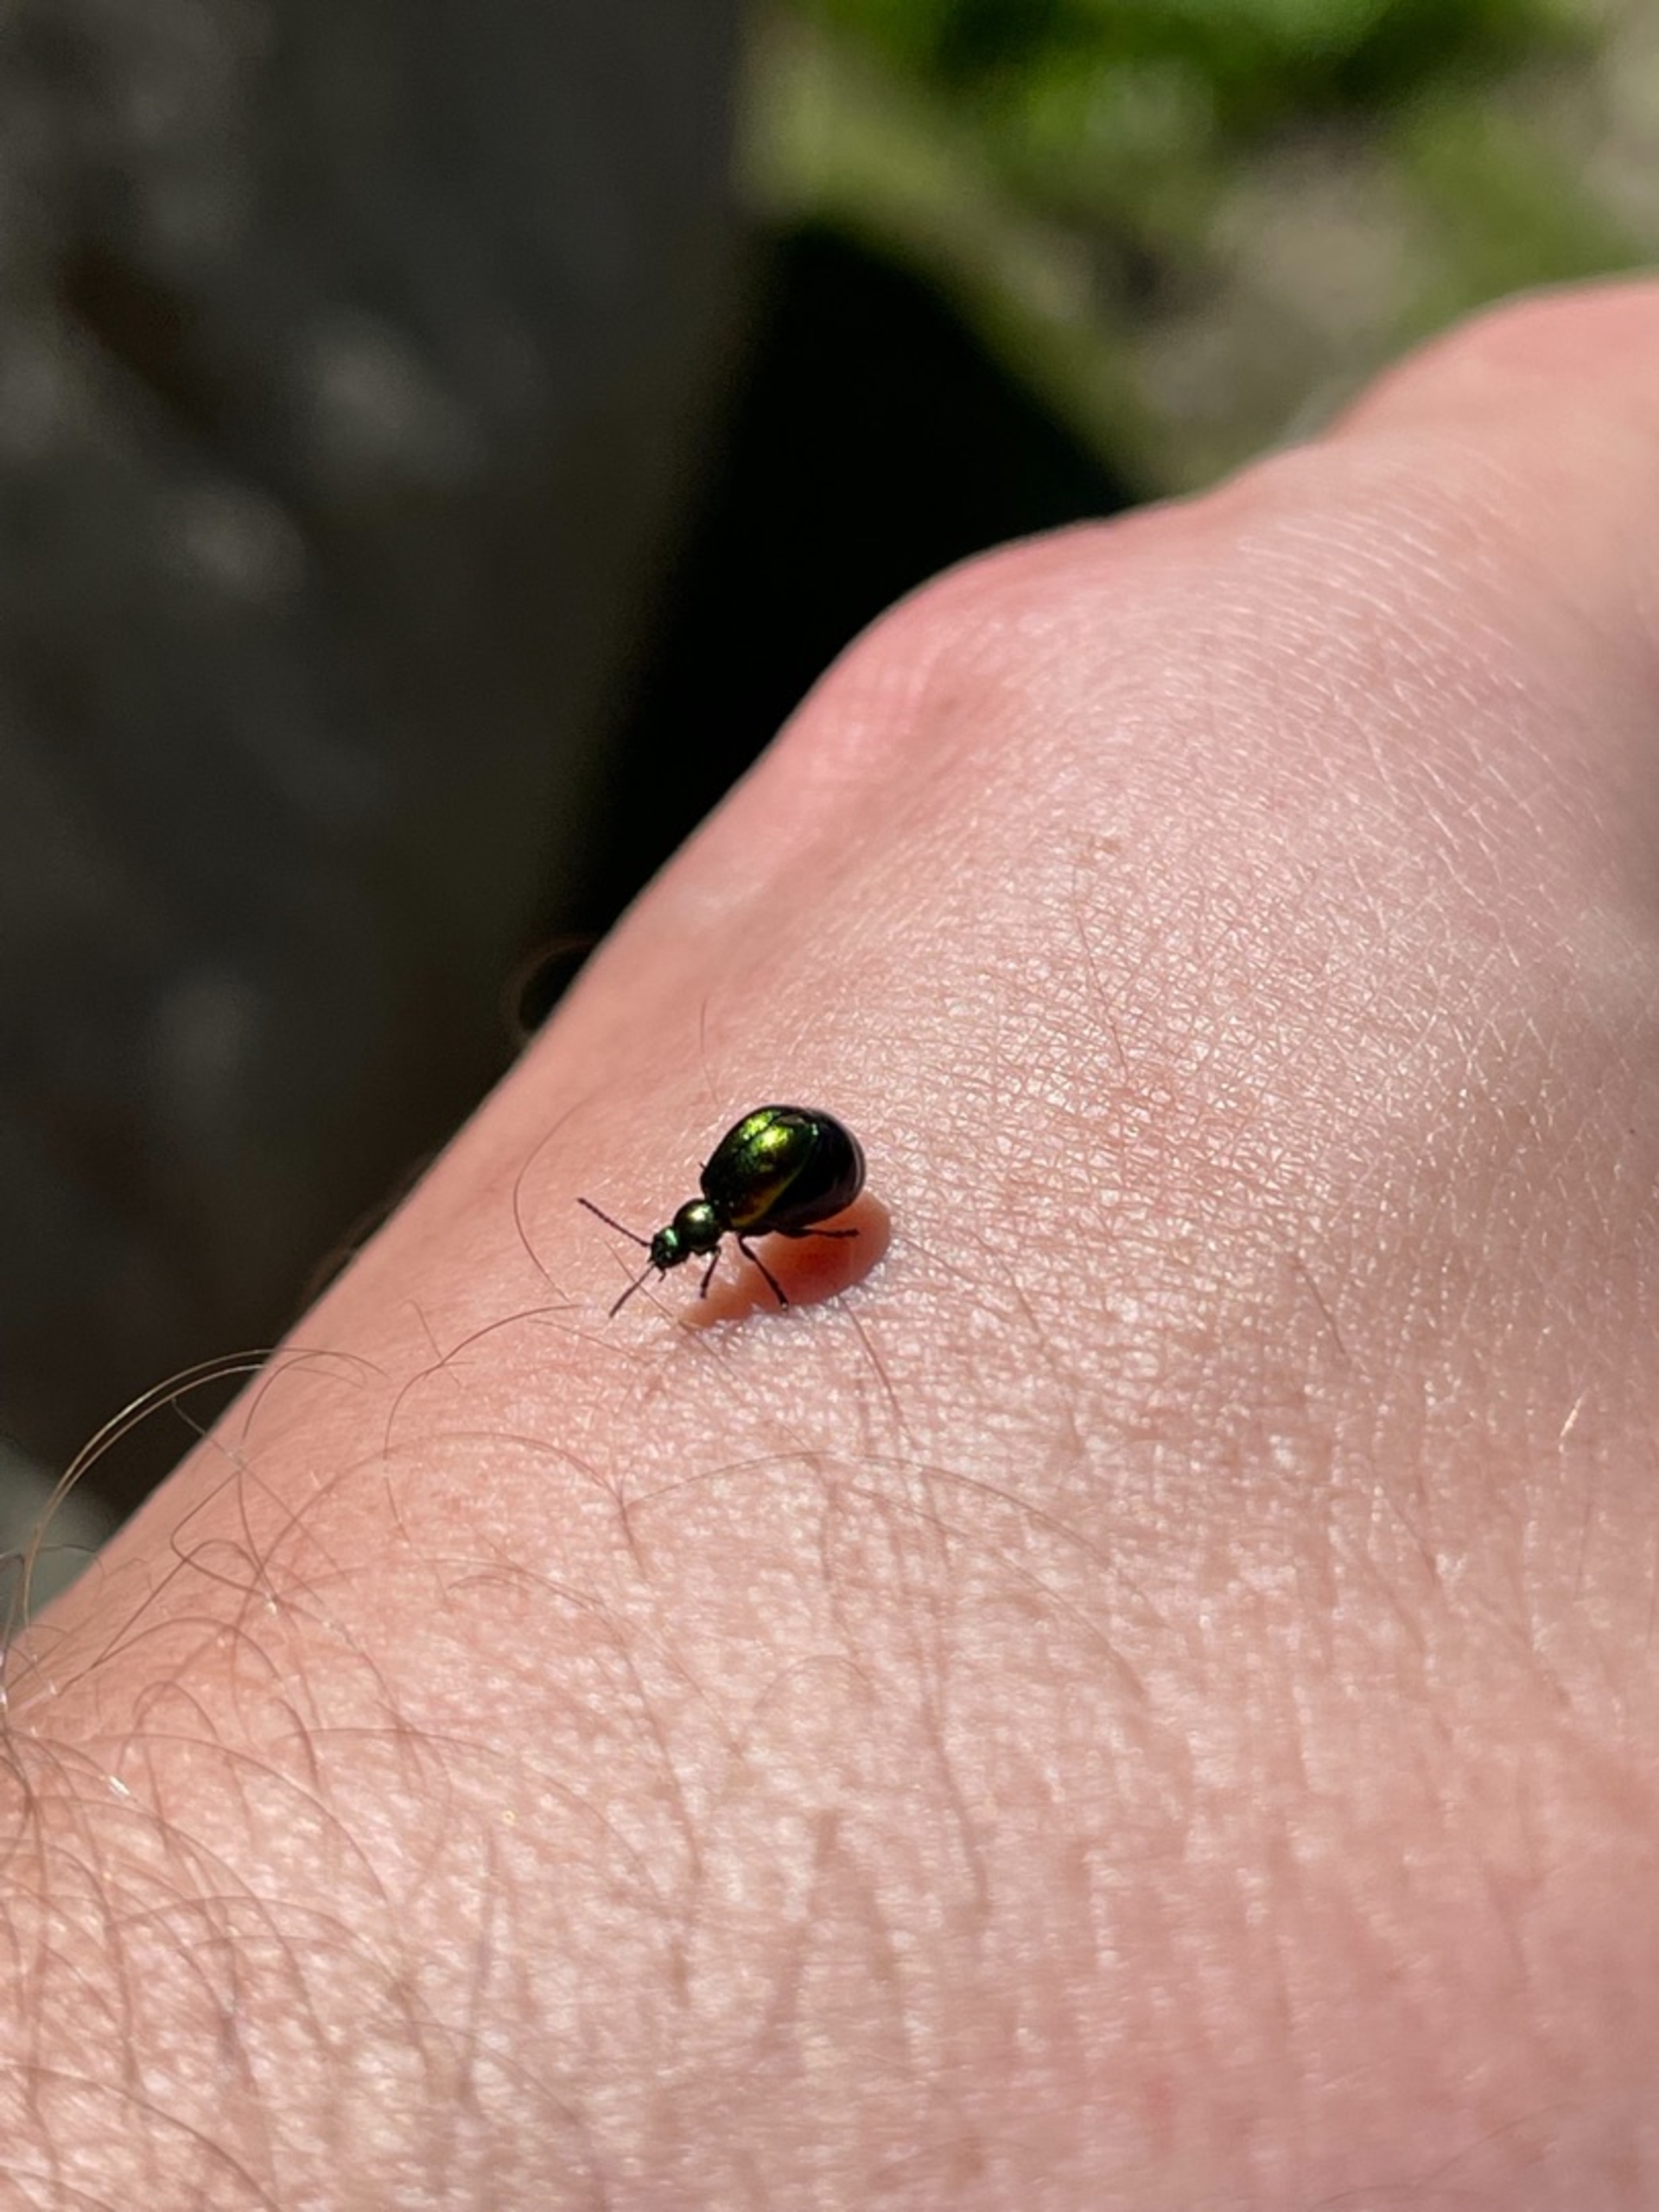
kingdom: Animalia
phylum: Arthropoda
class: Insecta
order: Coleoptera
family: Chrysomelidae
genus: Gastrophysa
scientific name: Gastrophysa viridula
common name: Skræppebladbille
